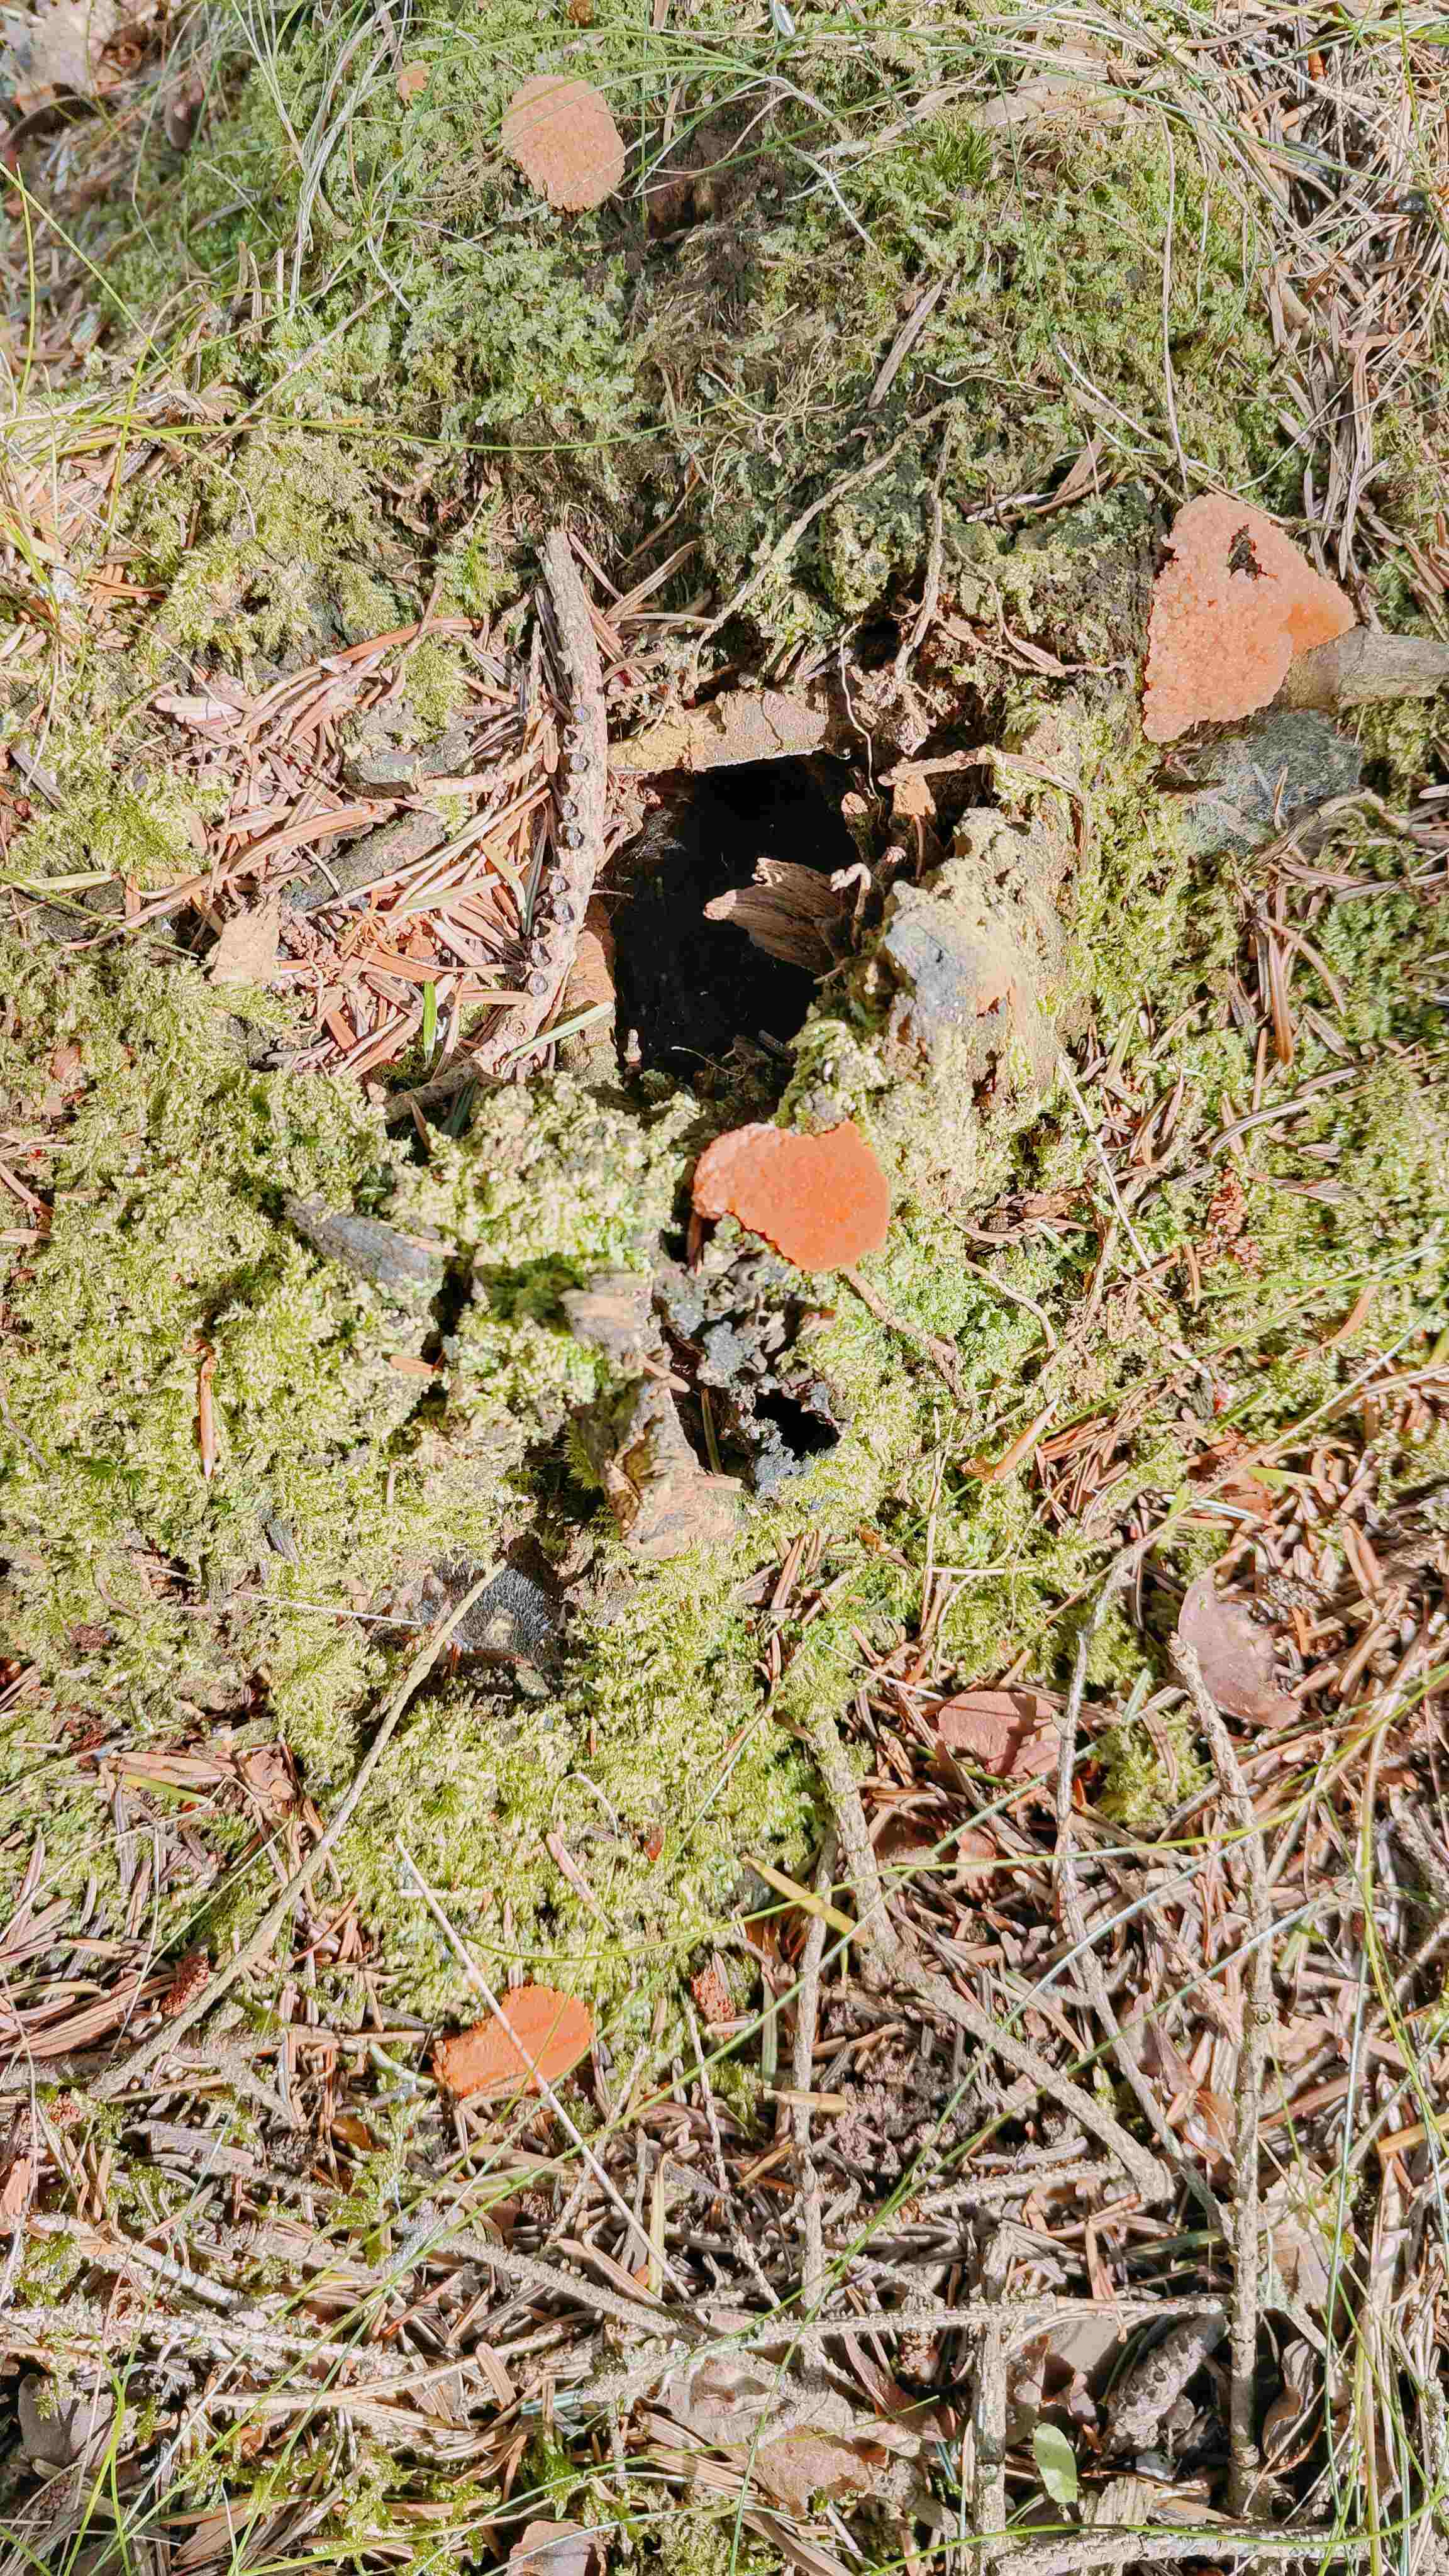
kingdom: Protozoa
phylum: Mycetozoa
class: Myxomycetes
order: Cribrariales
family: Tubiferaceae
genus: Tubifera
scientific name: Tubifera ferruginosa
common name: kanel-støvrør
